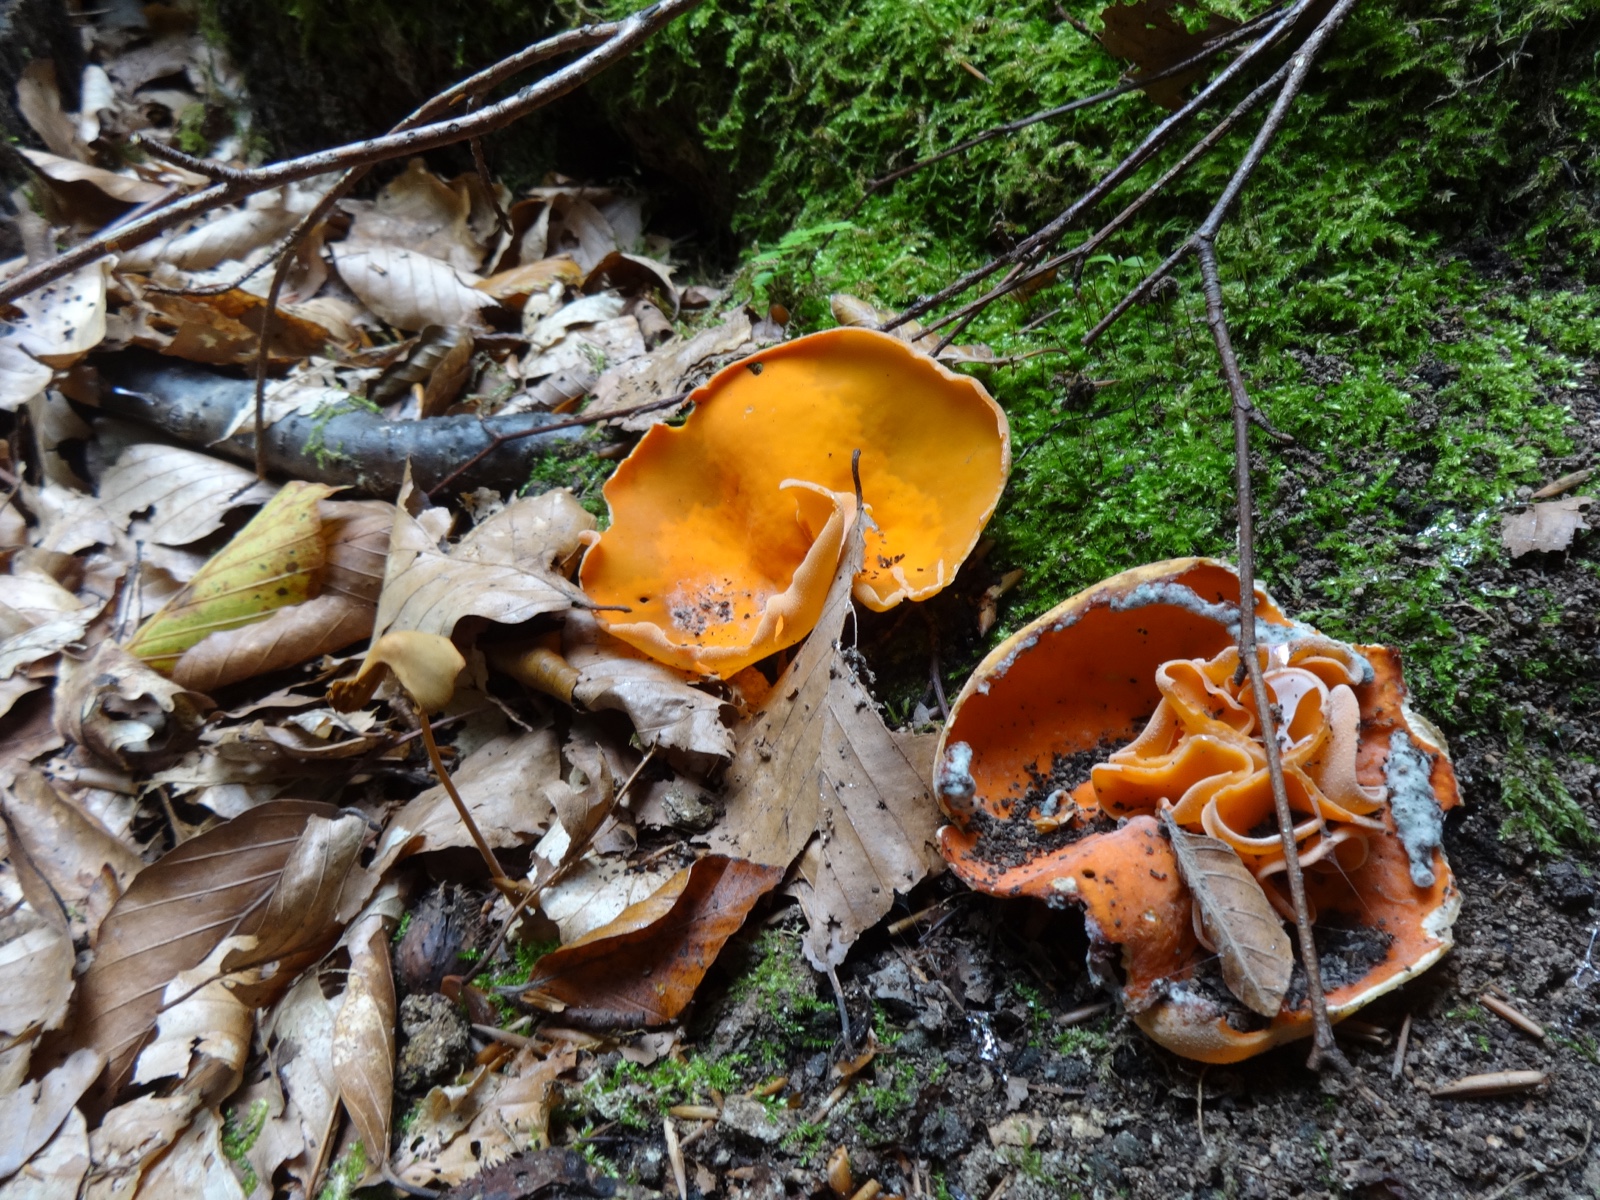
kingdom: Fungi
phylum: Ascomycota
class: Pezizomycetes
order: Pezizales
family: Pyronemataceae
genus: Aleuria
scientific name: Aleuria aurantia
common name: almindelig orangebæger
